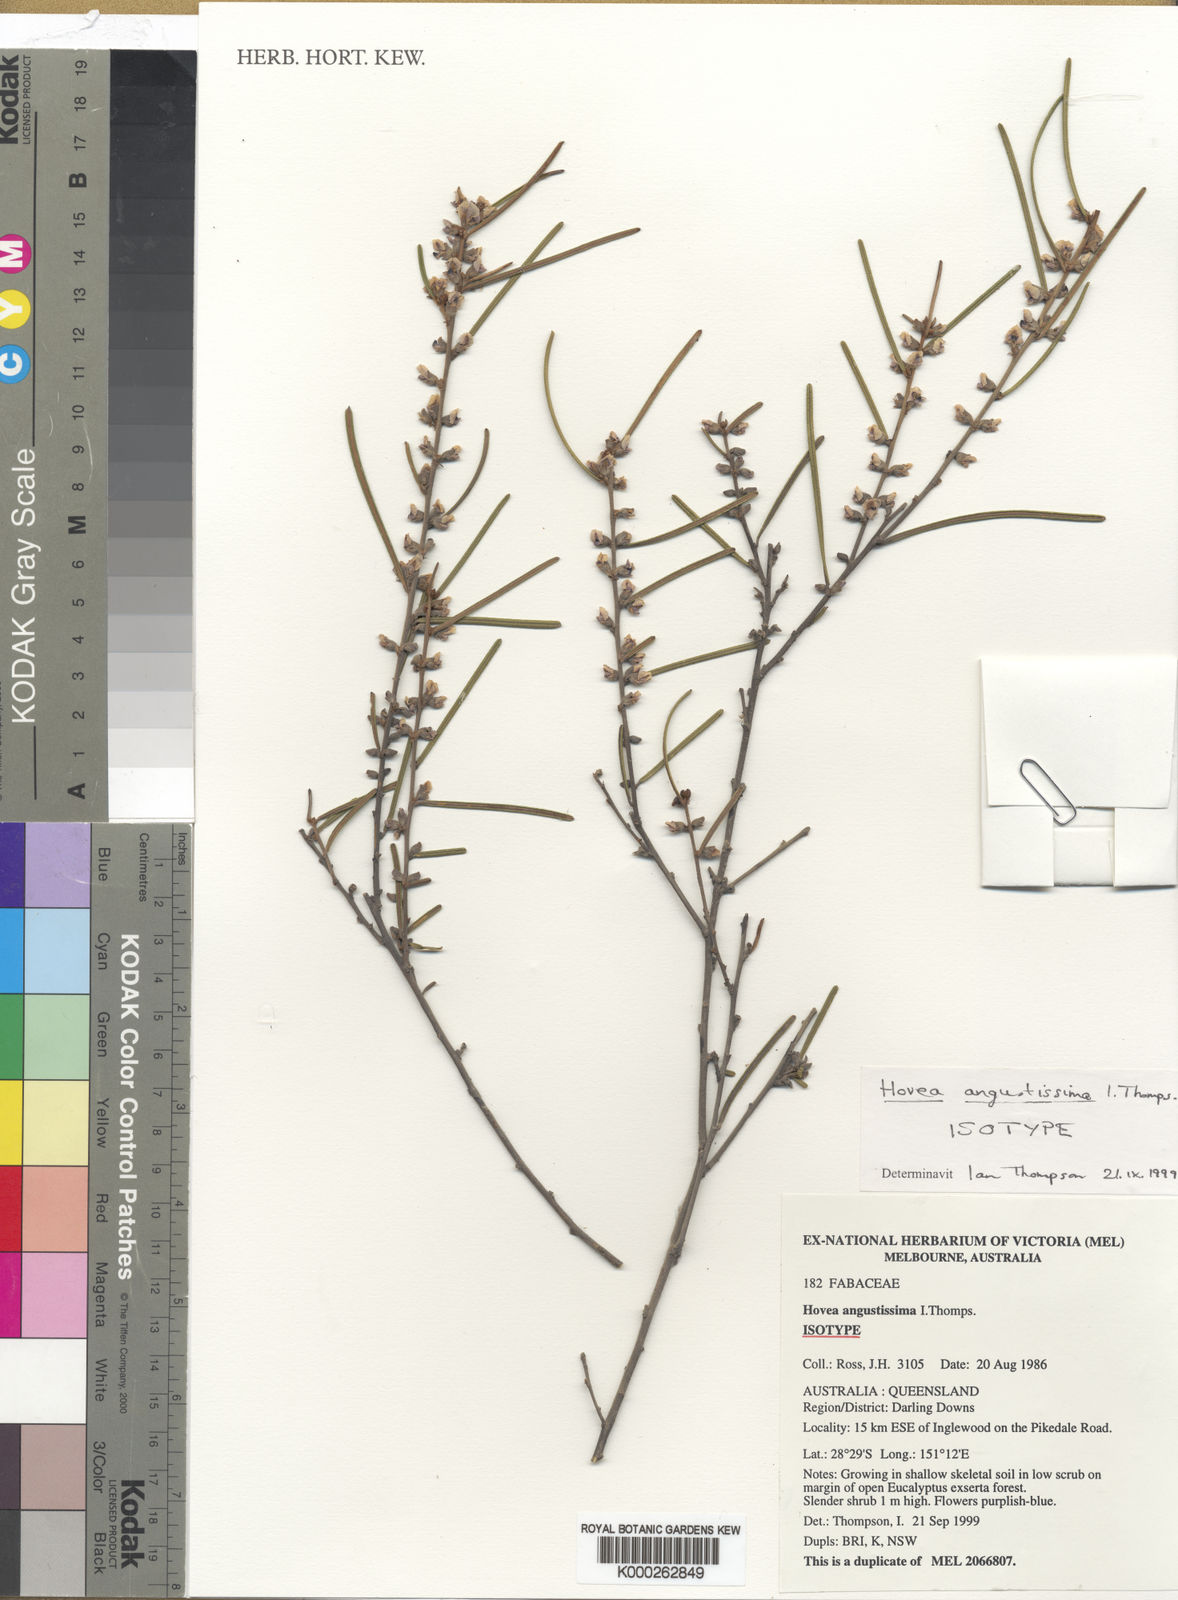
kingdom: Plantae
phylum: Tracheophyta
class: Magnoliopsida
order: Fabales
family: Fabaceae
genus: Hovea
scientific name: Hovea angustissima
